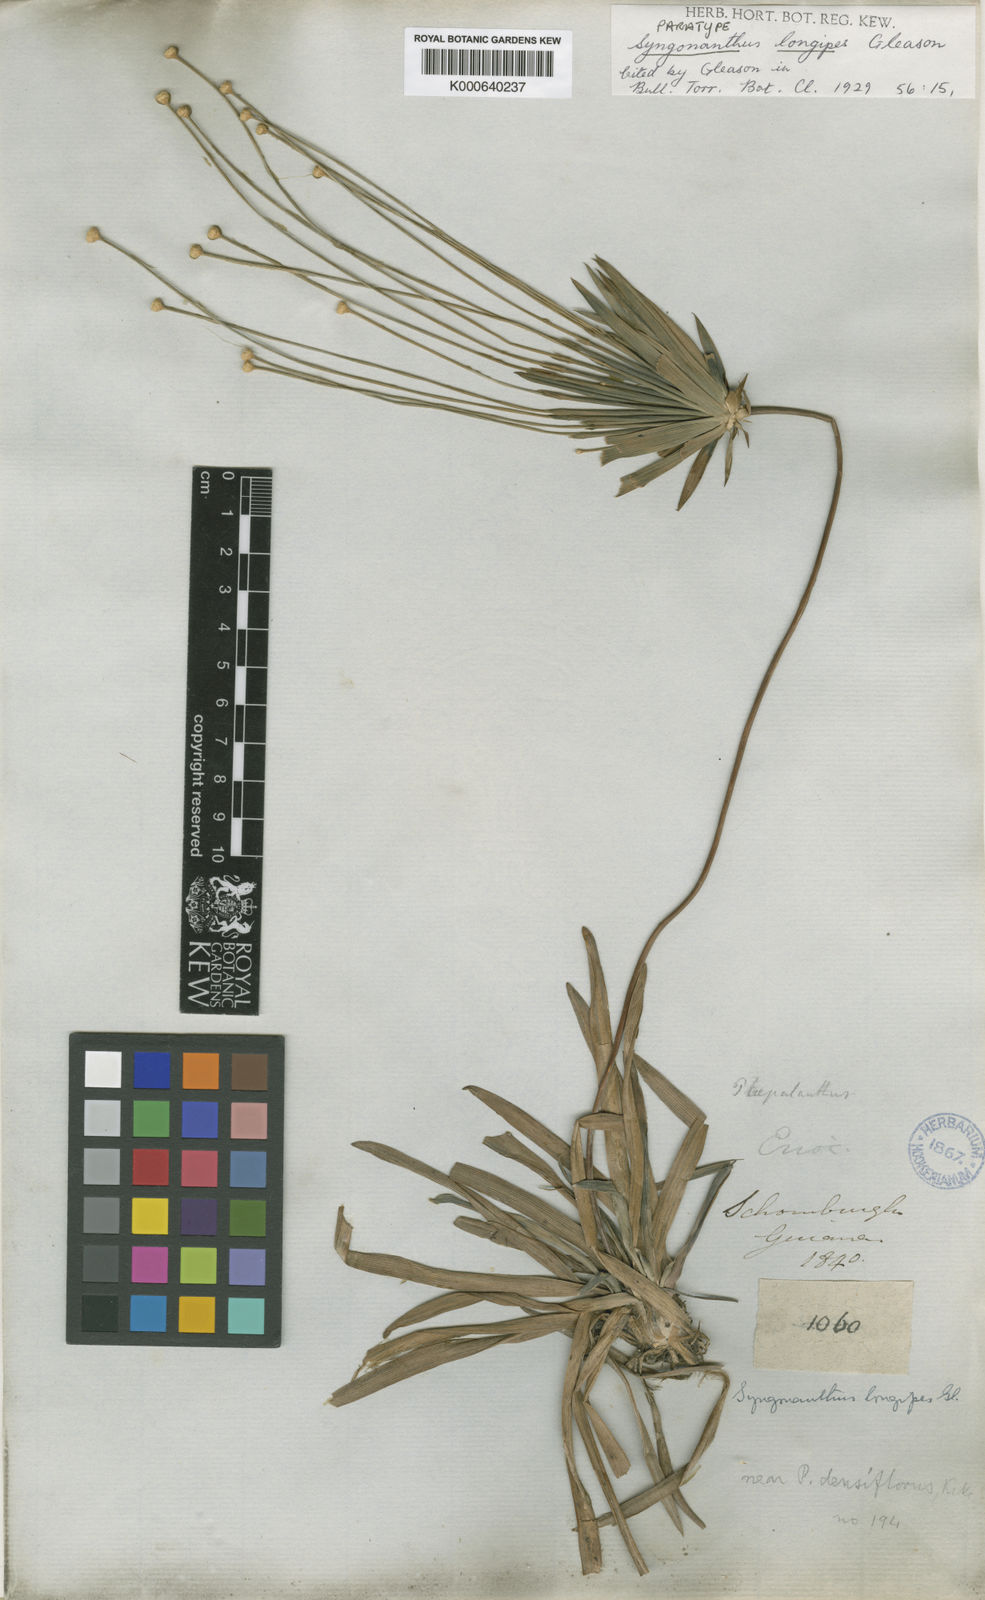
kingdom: Plantae
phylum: Tracheophyta
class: Liliopsida
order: Poales
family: Eriocaulaceae
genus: Syngonanthus
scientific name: Syngonanthus longipes
